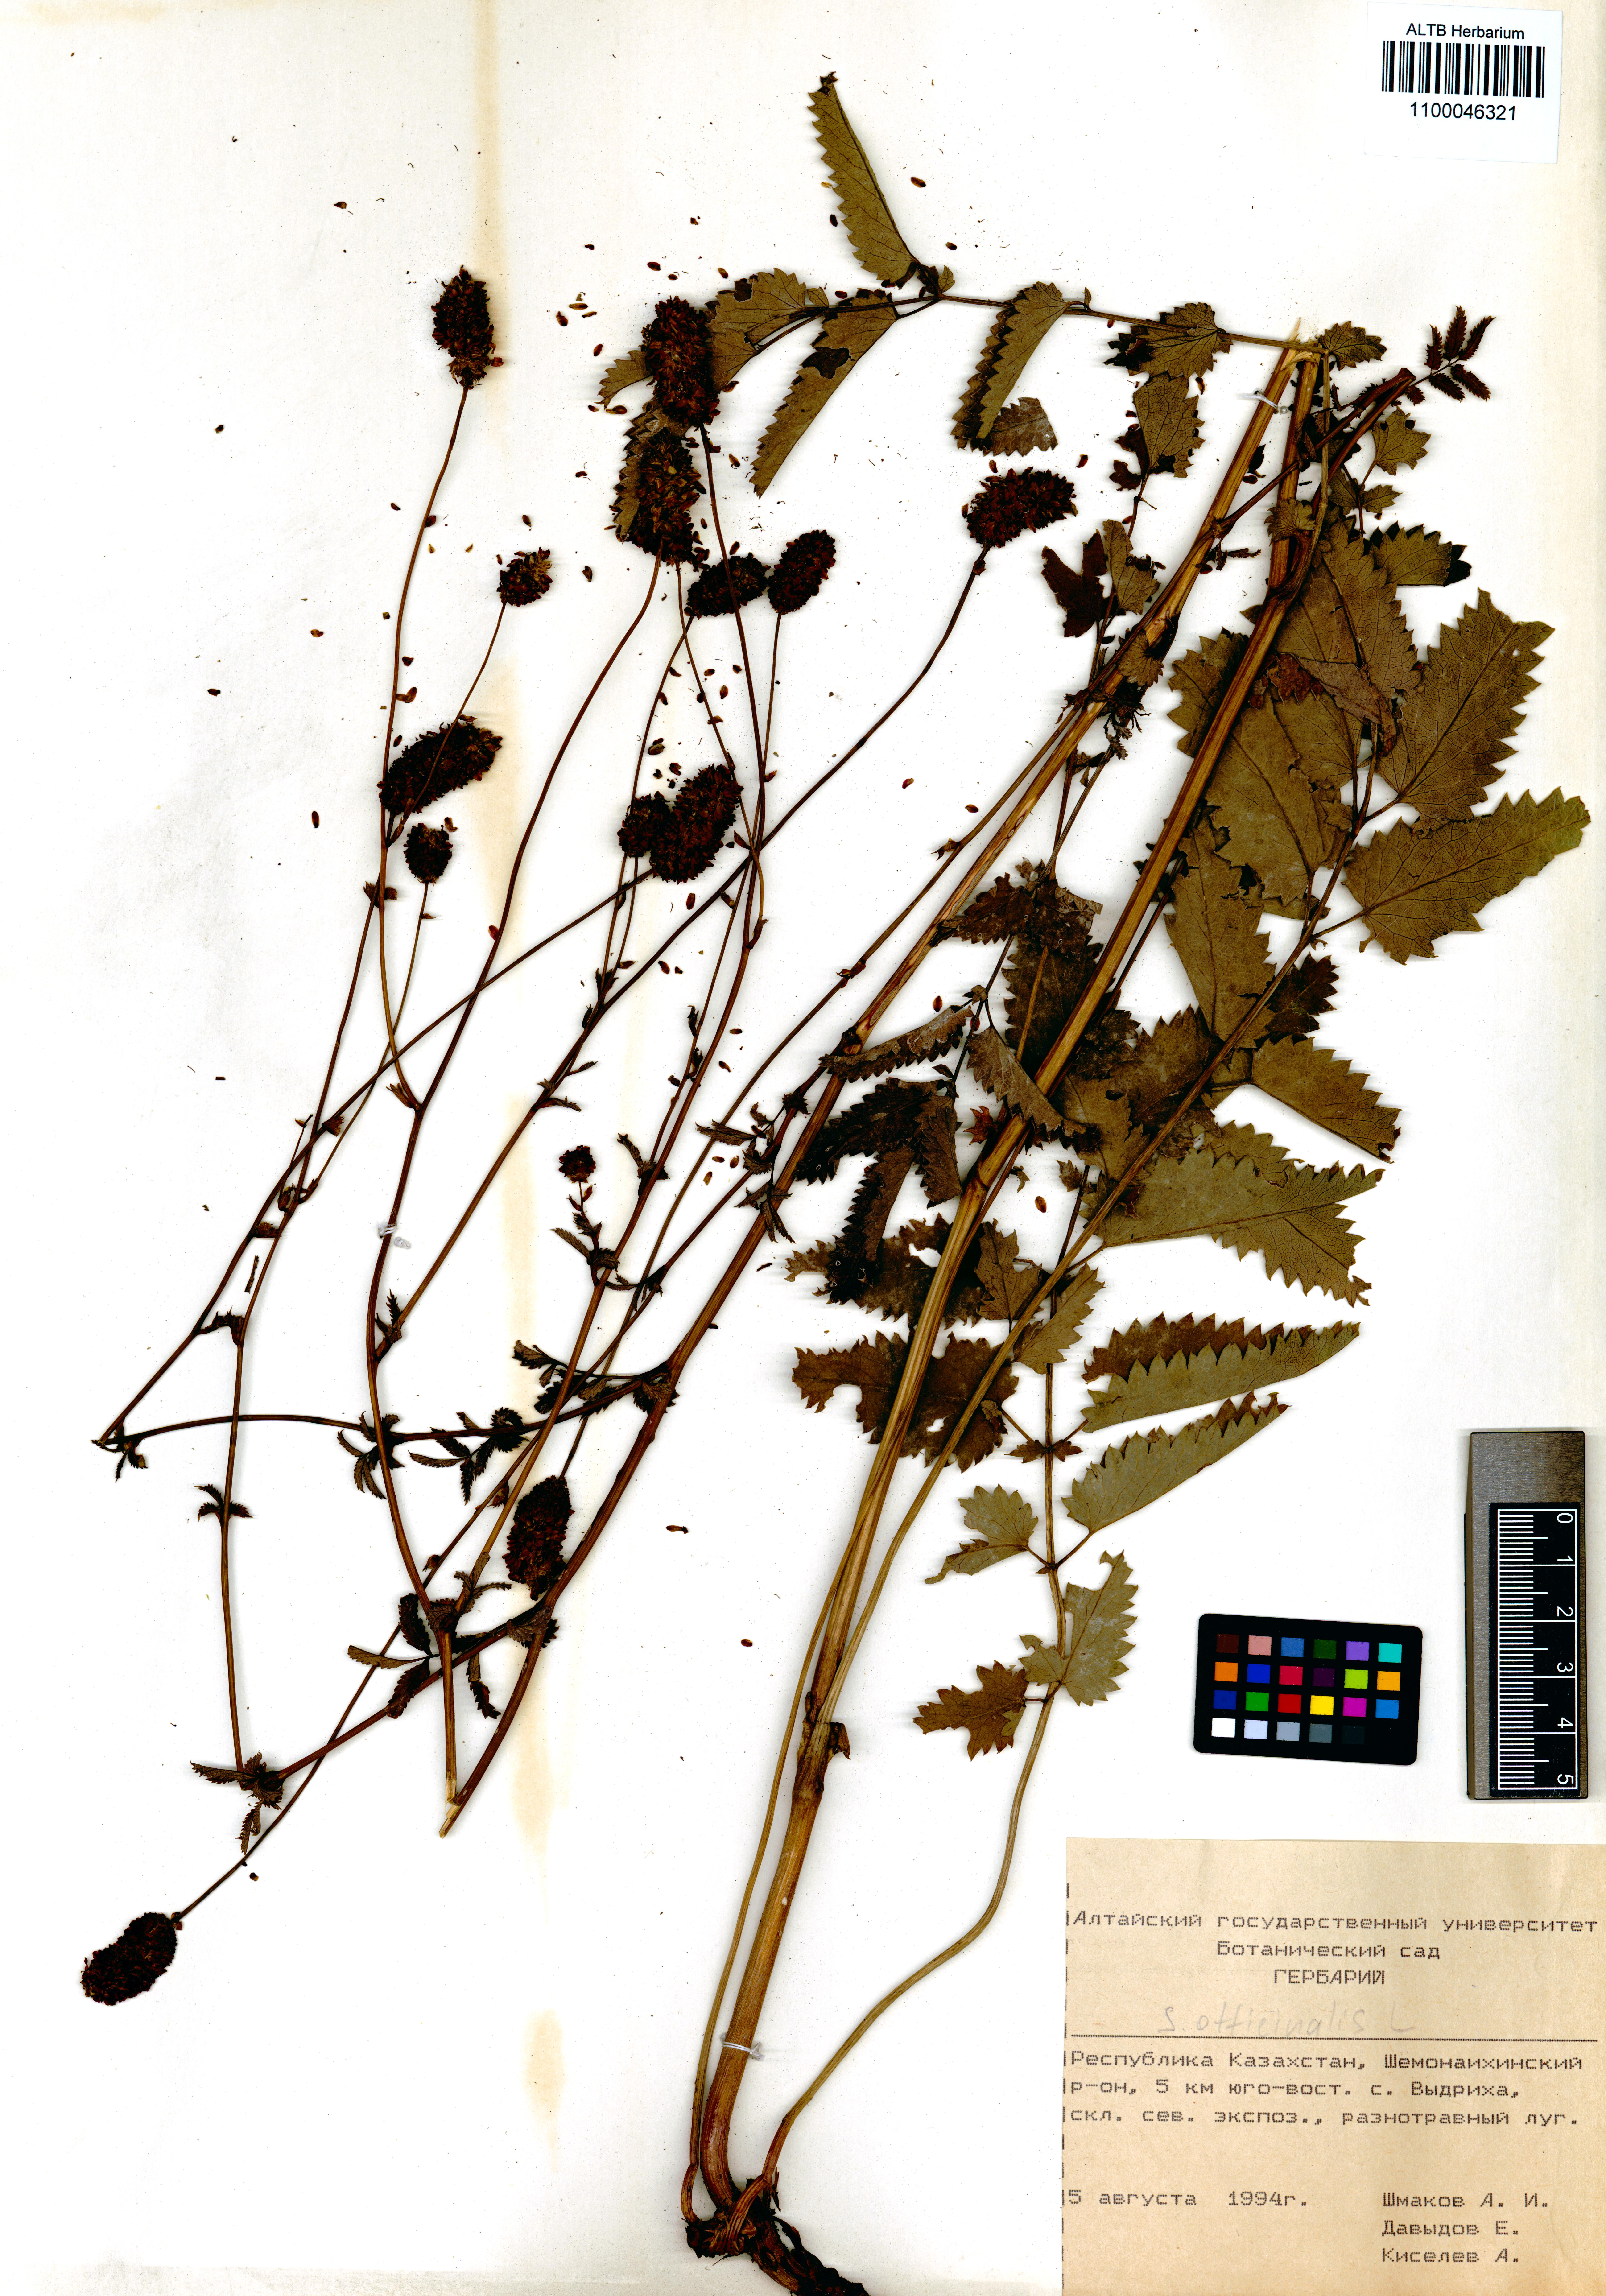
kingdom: Plantae
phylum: Tracheophyta
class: Magnoliopsida
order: Rosales
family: Rosaceae
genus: Sanguisorba
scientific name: Sanguisorba officinalis
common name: Great burnet
